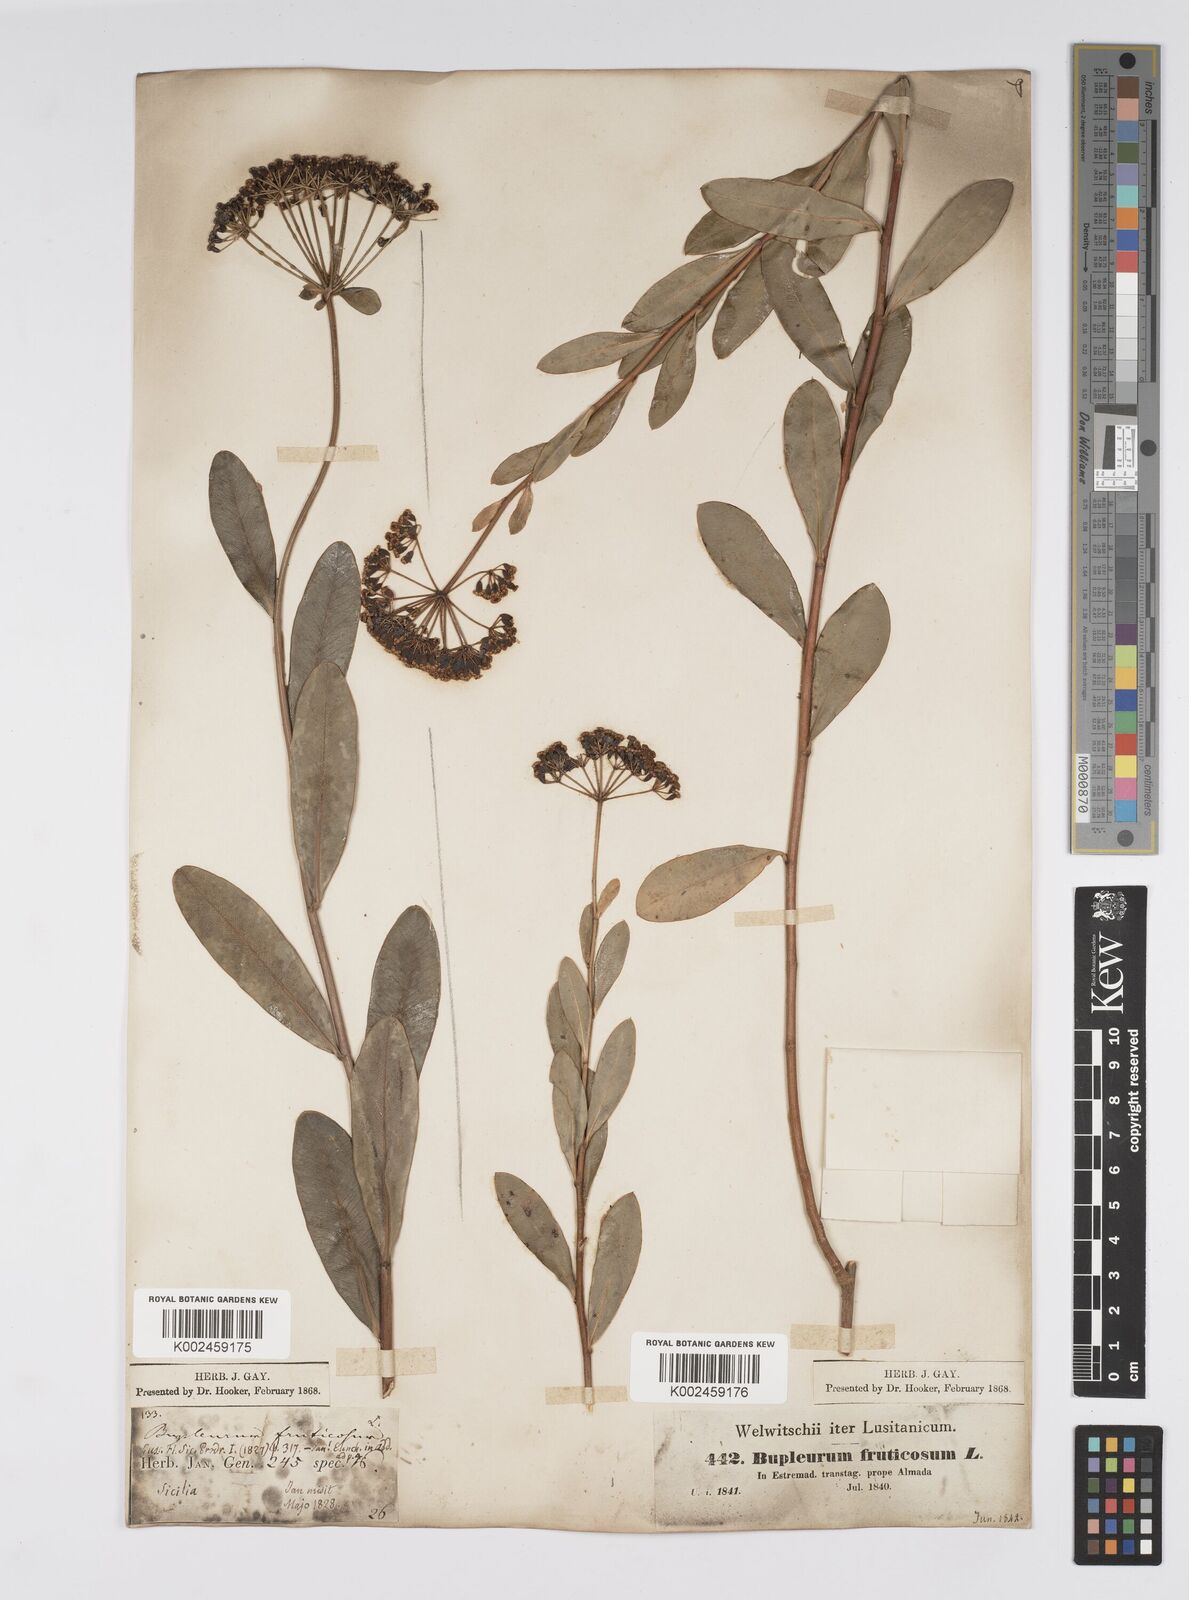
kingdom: Plantae
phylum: Tracheophyta
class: Magnoliopsida
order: Apiales
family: Apiaceae
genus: Bupleurum
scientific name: Bupleurum fruticosum
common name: Shrubby hare's-ear
